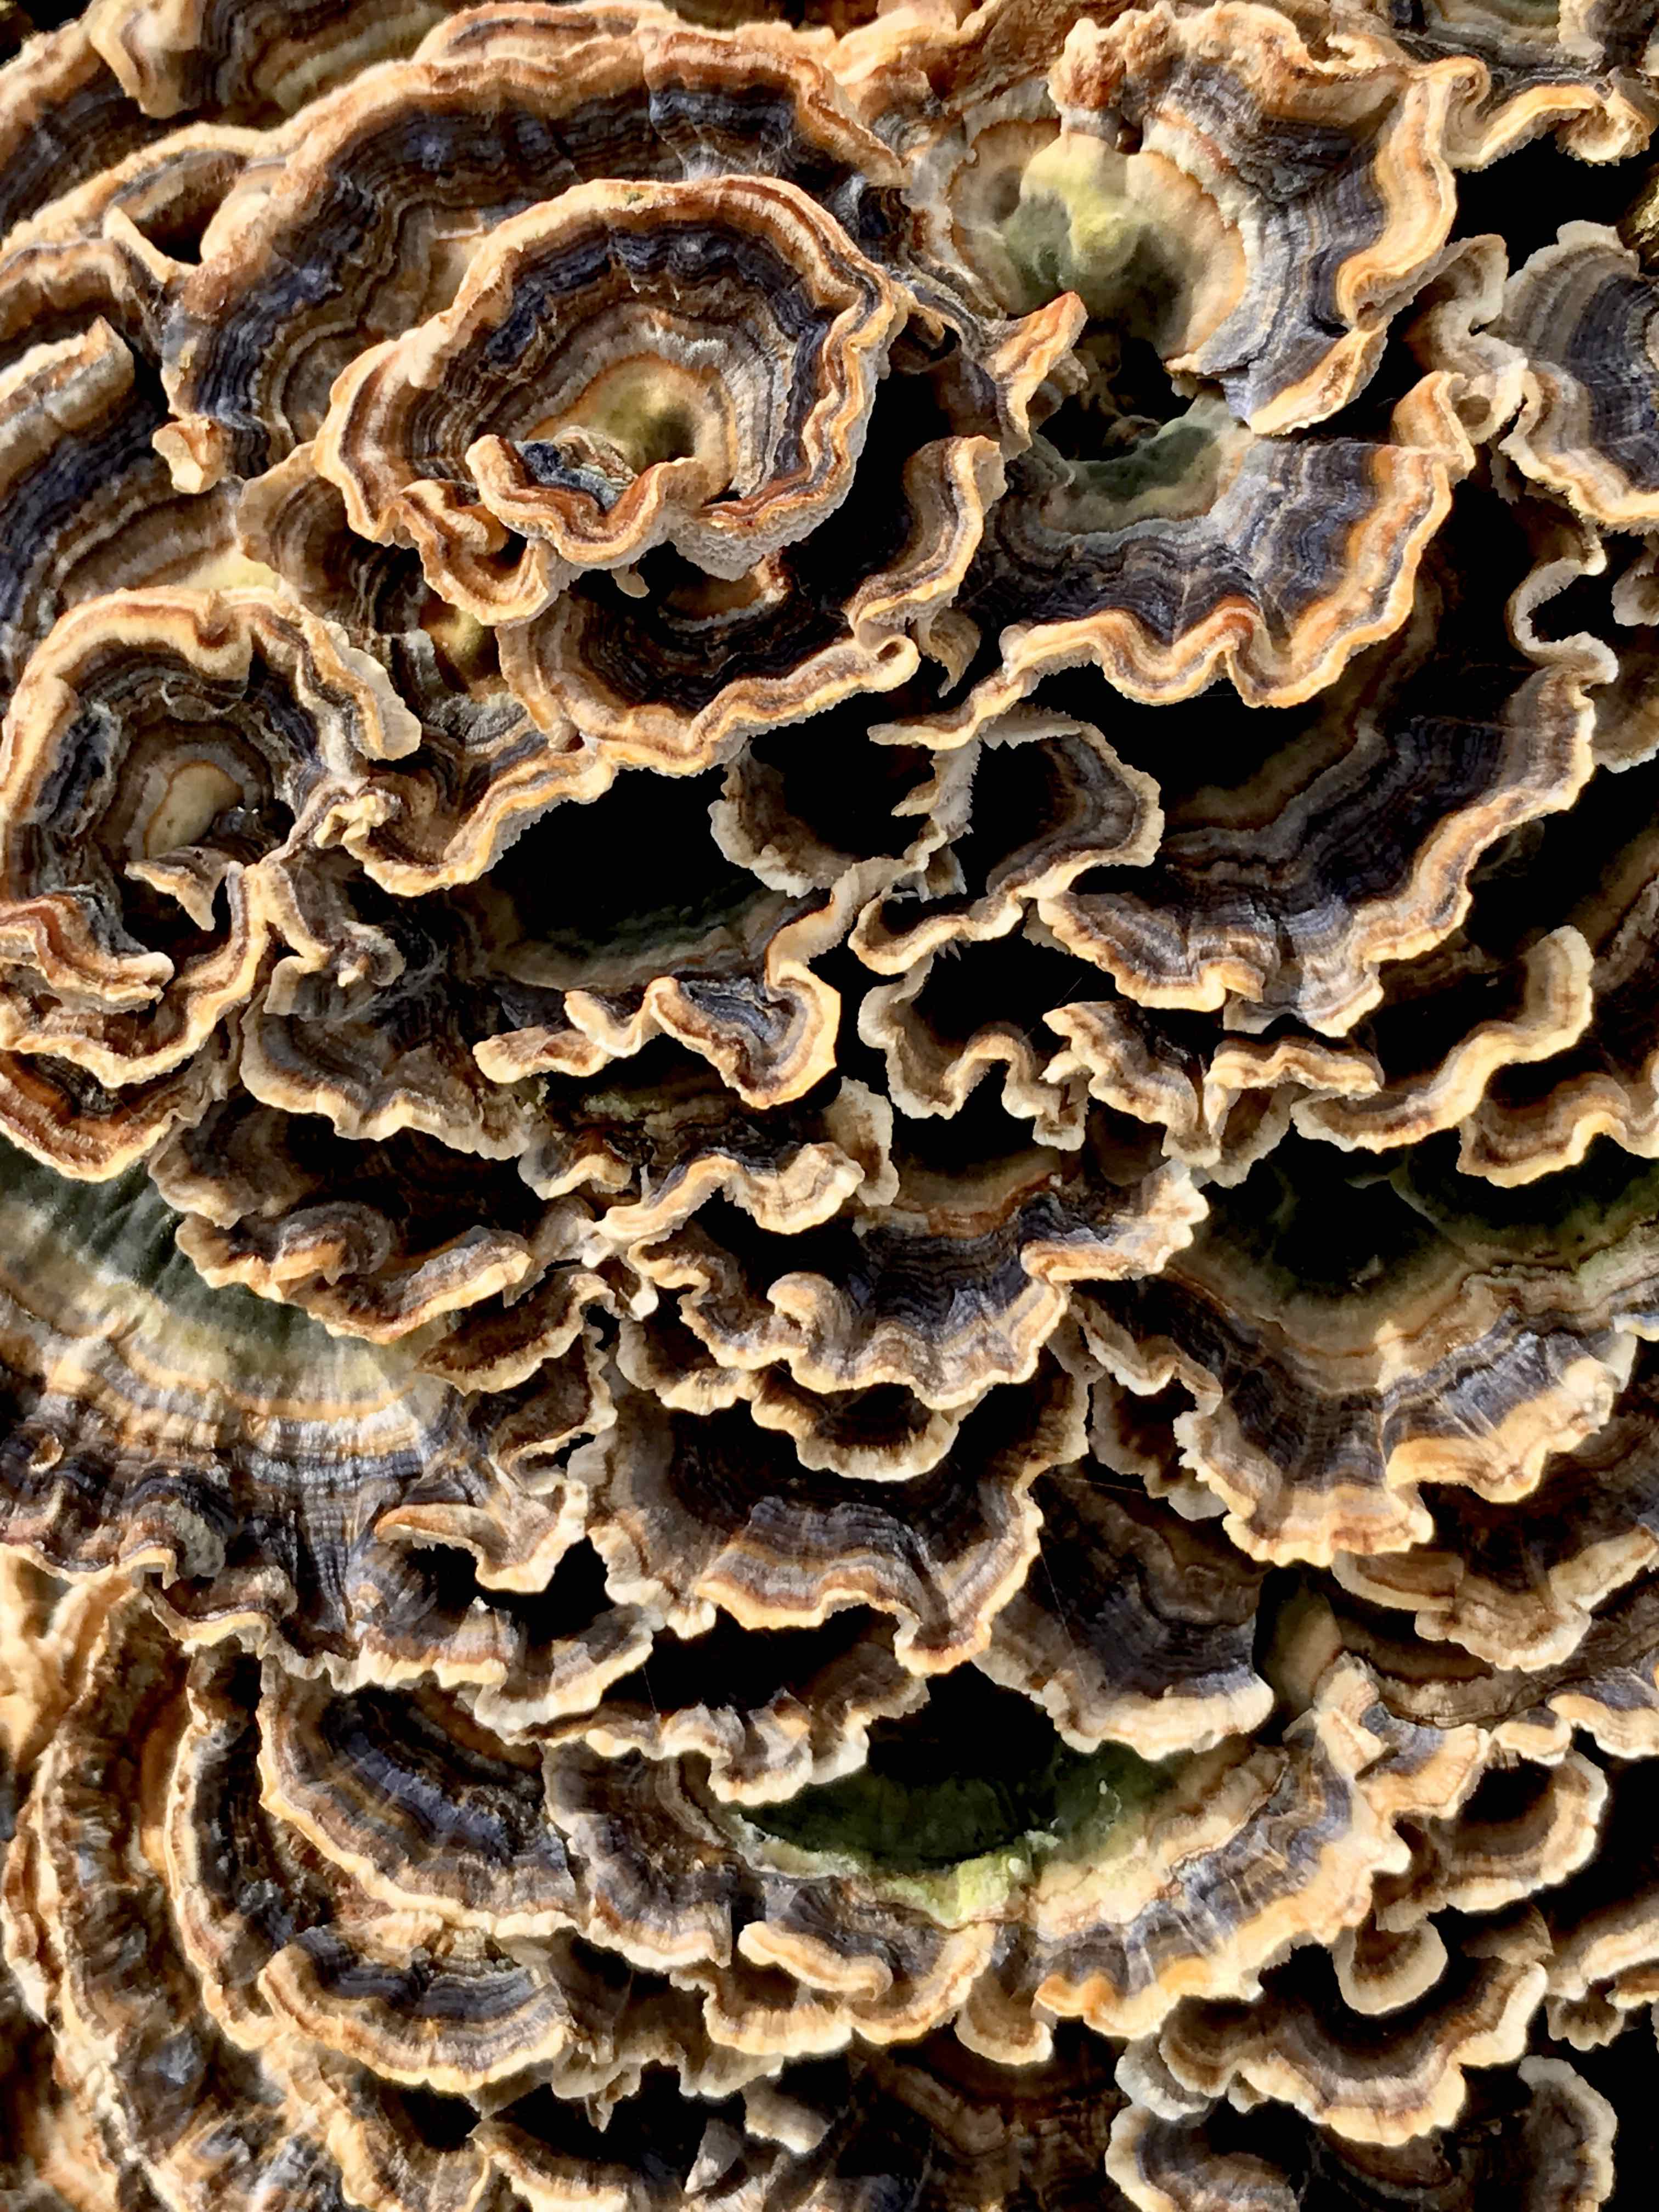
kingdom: Fungi
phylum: Basidiomycota
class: Agaricomycetes
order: Polyporales
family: Polyporaceae
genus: Trametes
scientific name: Trametes versicolor
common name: broget læderporesvamp
